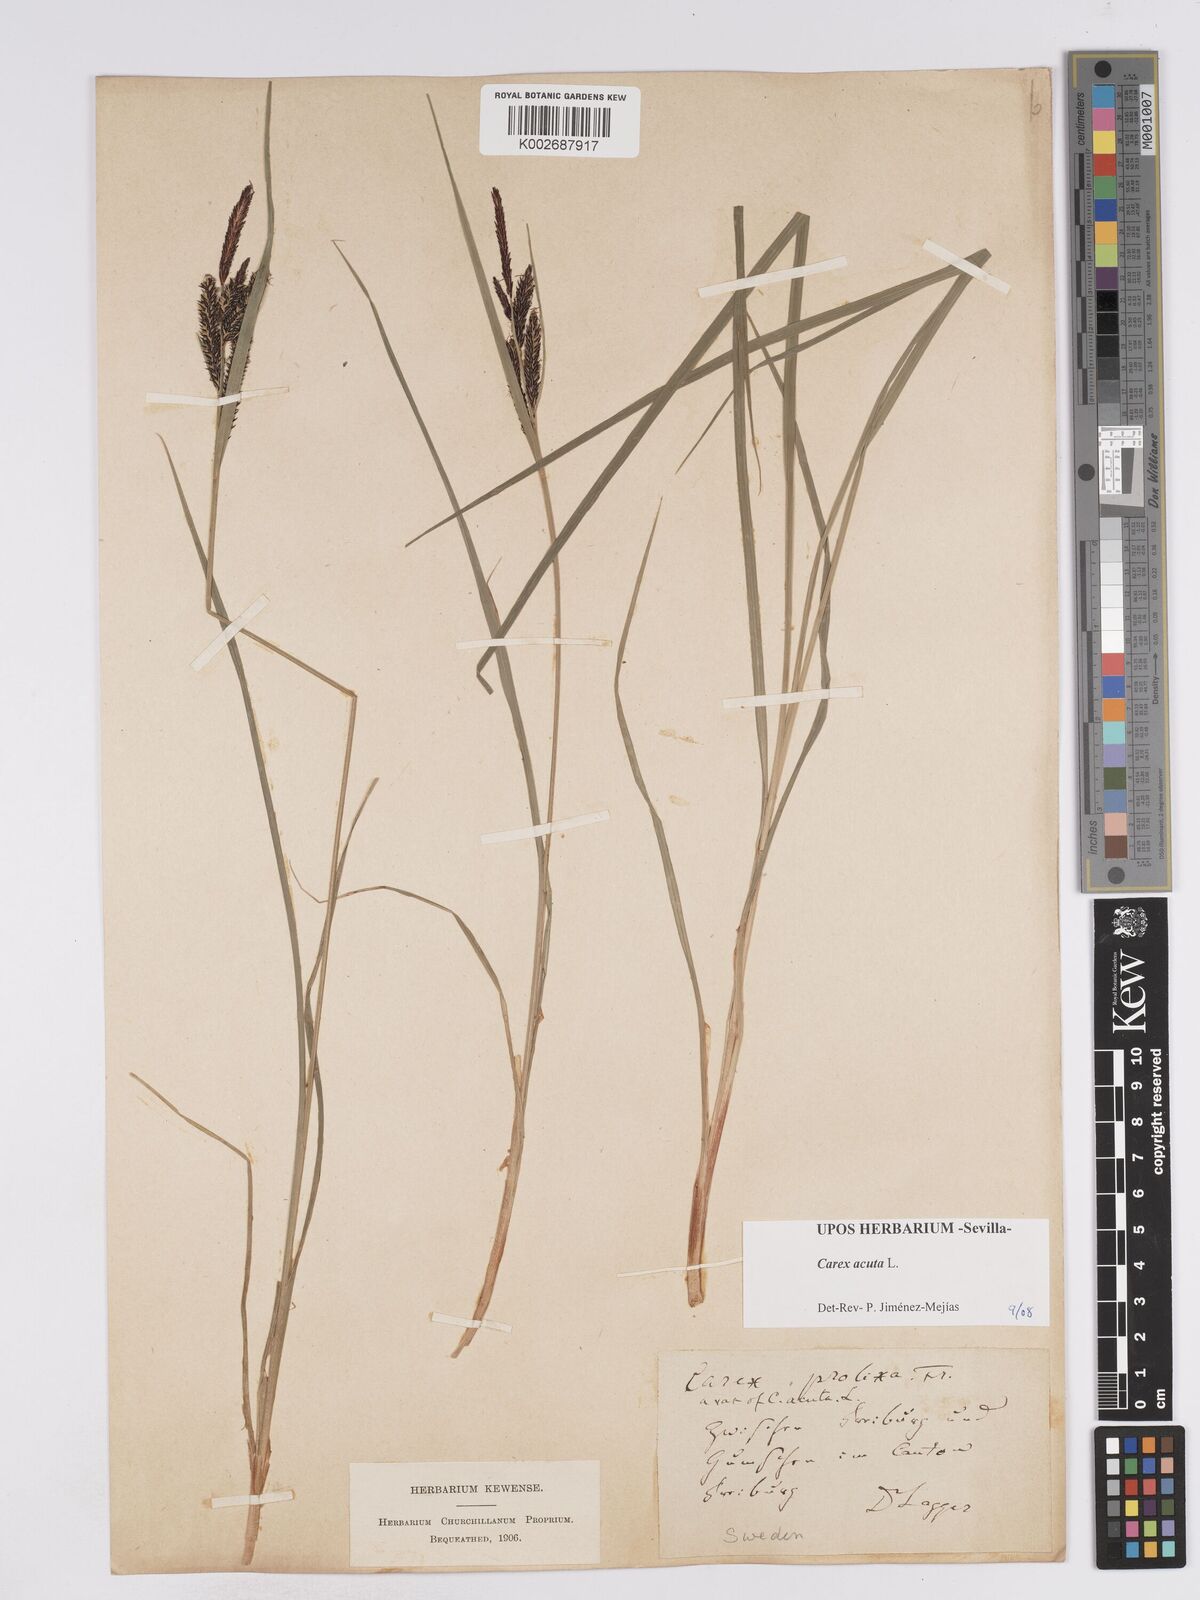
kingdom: Plantae
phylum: Tracheophyta
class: Liliopsida
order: Poales
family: Cyperaceae
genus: Carex
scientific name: Carex acuta
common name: Slender tufted-sedge
